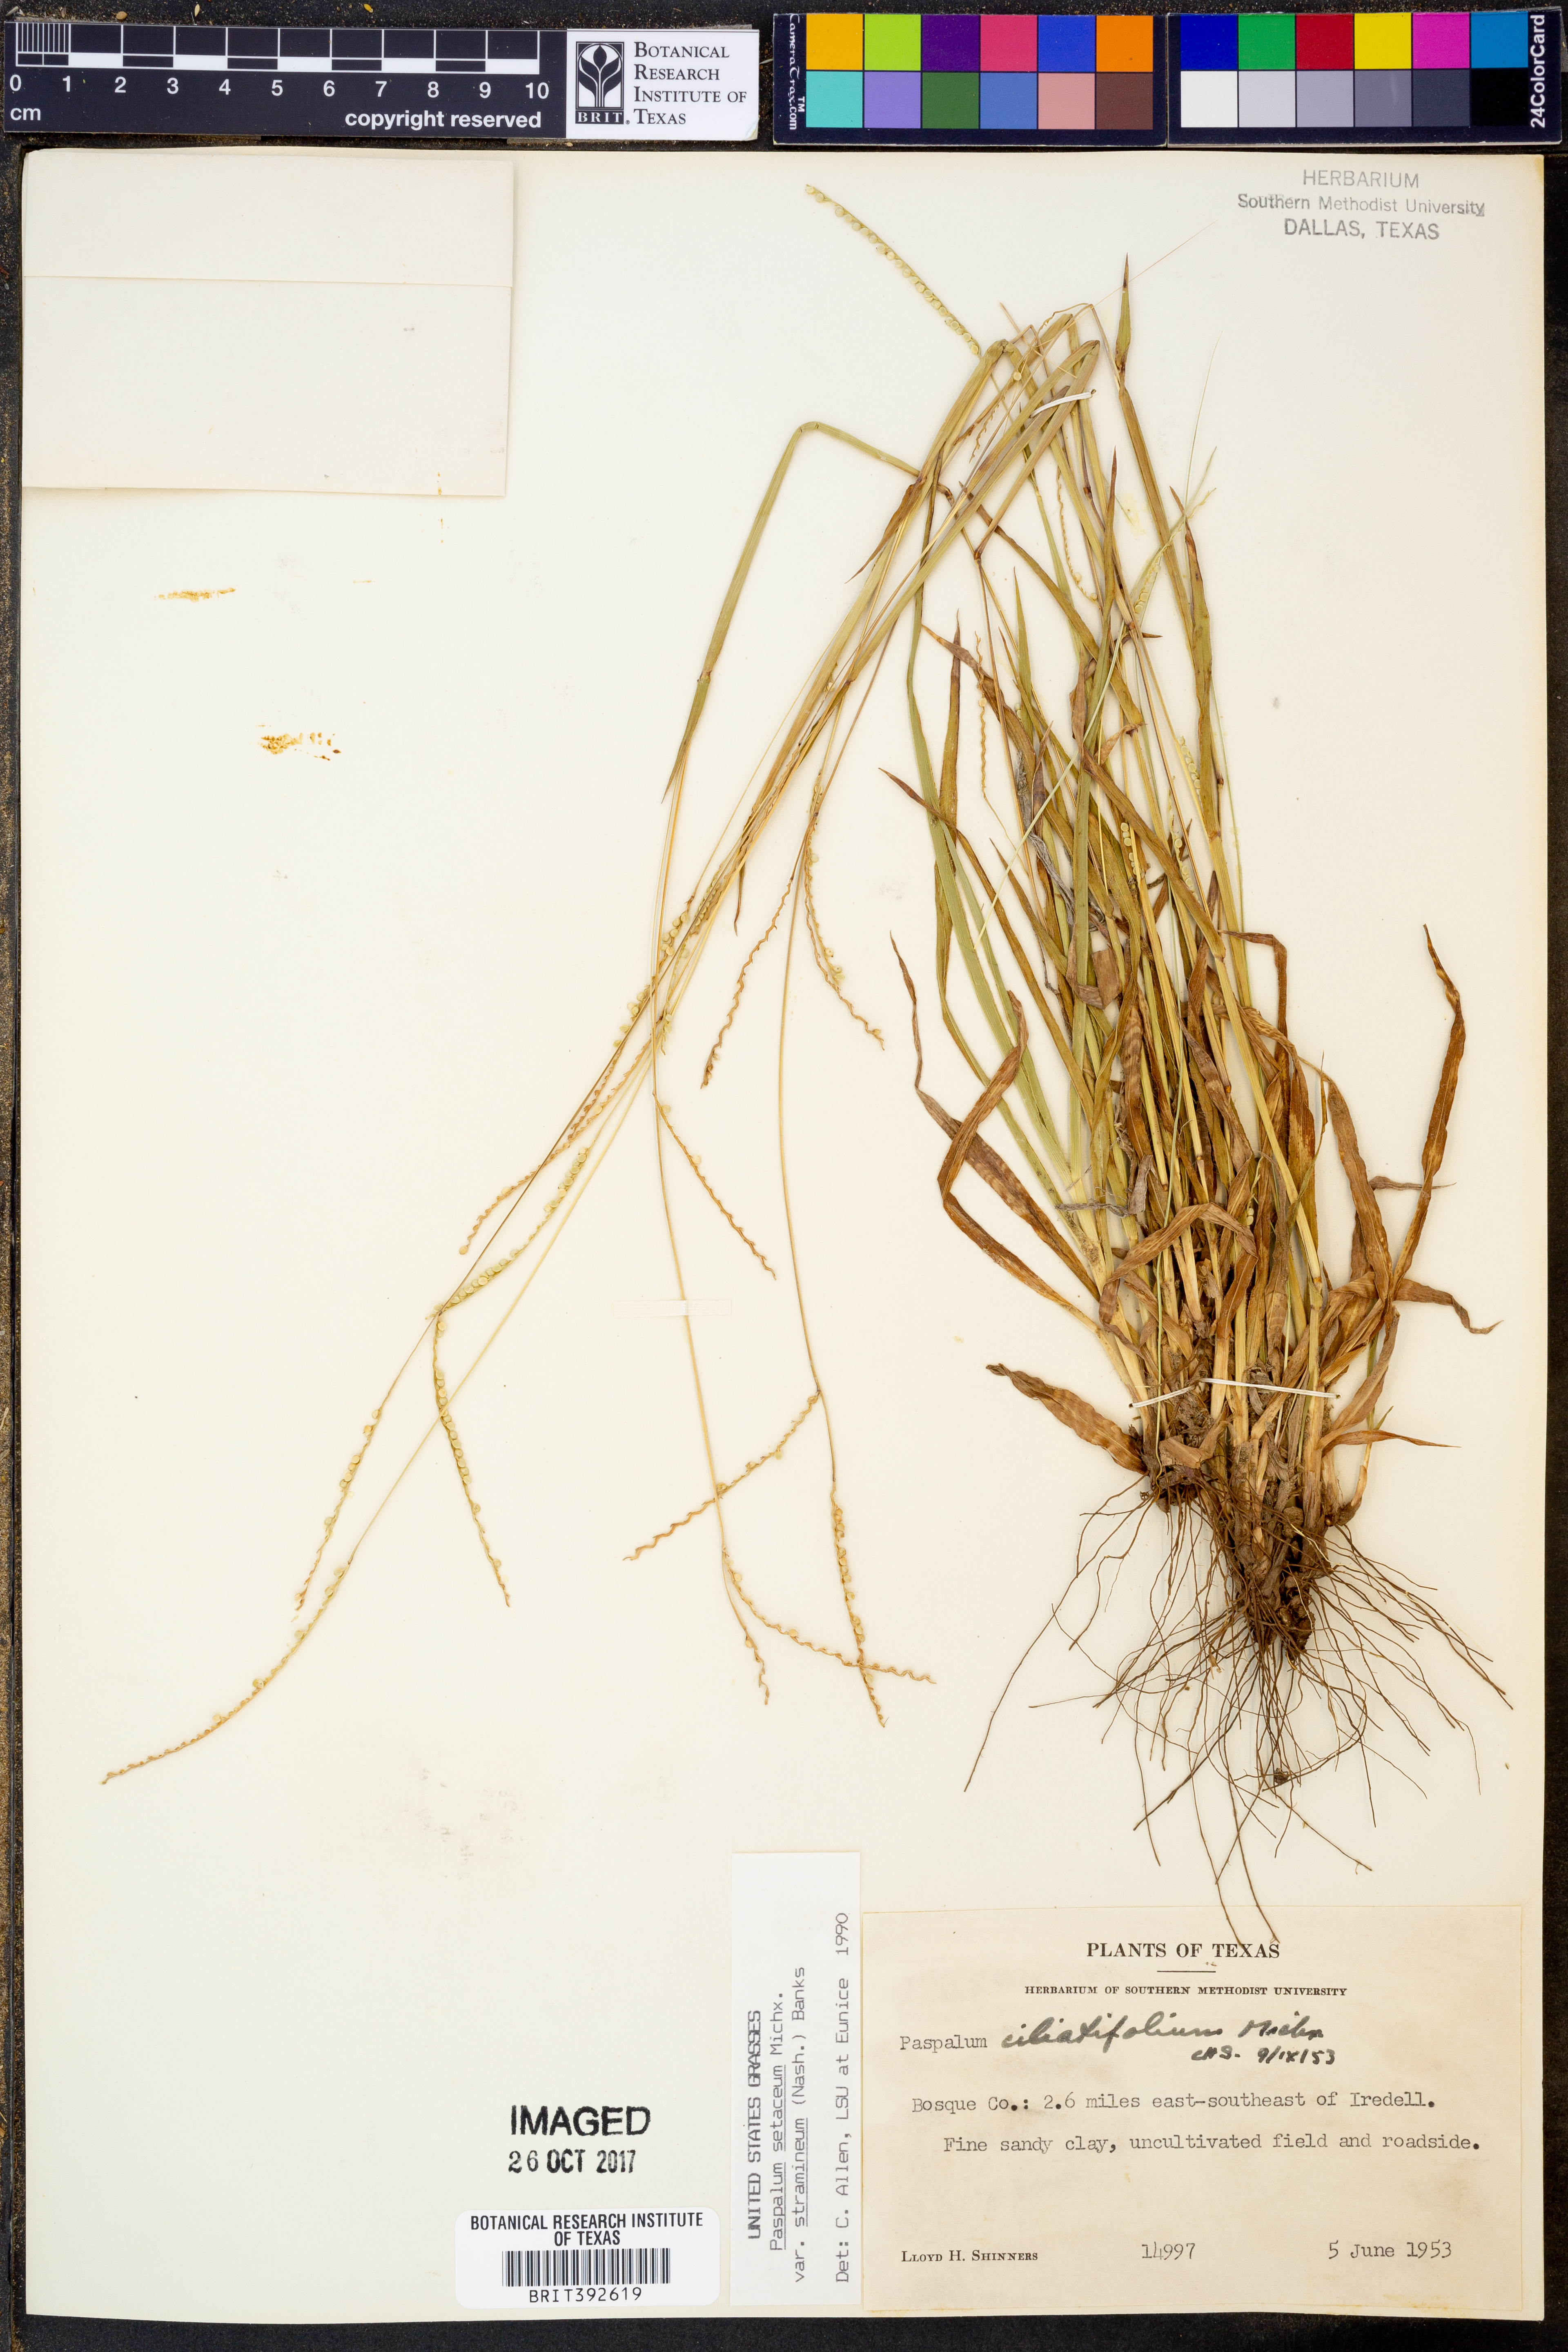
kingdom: Plantae
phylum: Tracheophyta
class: Liliopsida
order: Poales
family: Poaceae
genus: Paspalum
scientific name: Paspalum setaceum
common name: Slender paspalum
